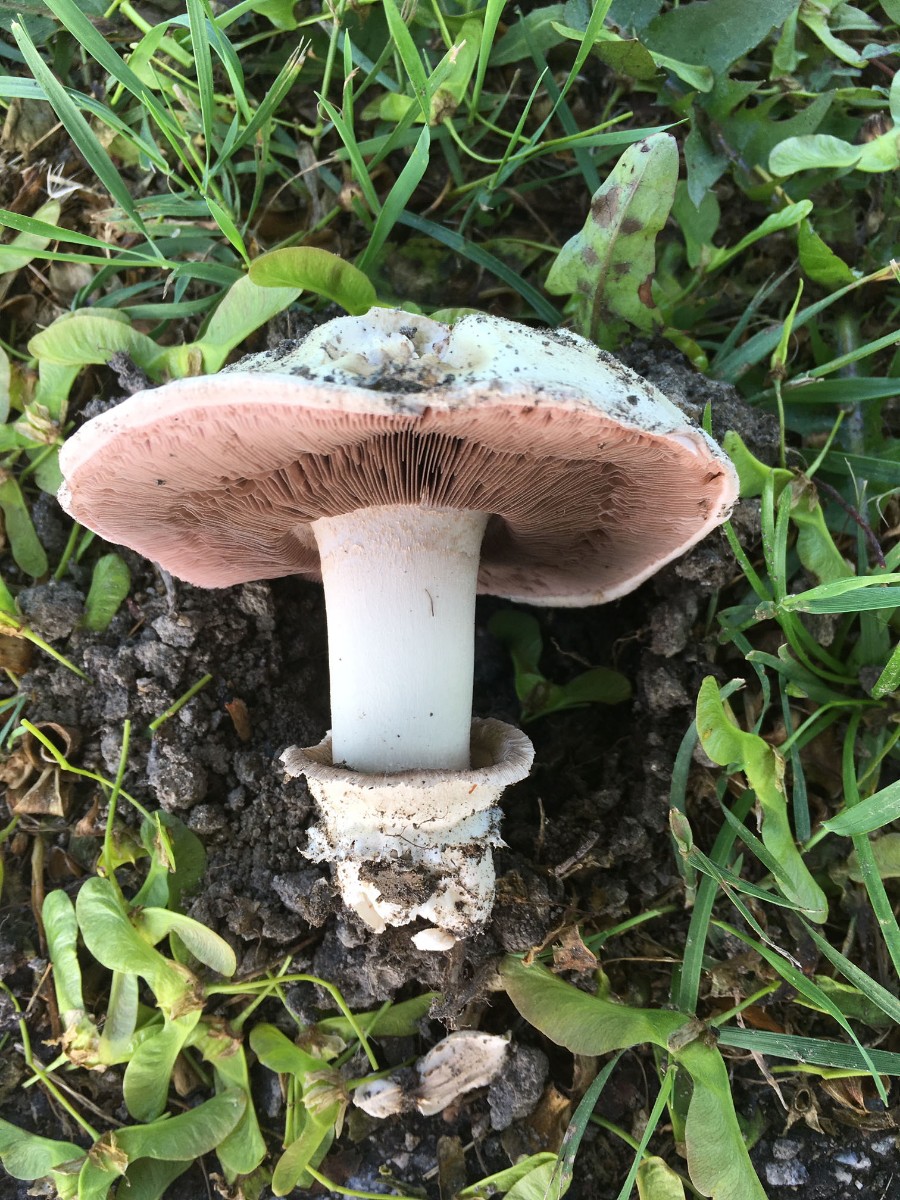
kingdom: Fungi
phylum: Basidiomycota
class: Agaricomycetes
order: Agaricales
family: Agaricaceae
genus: Agaricus
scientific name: Agaricus bitorquis
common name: vej-champignon
